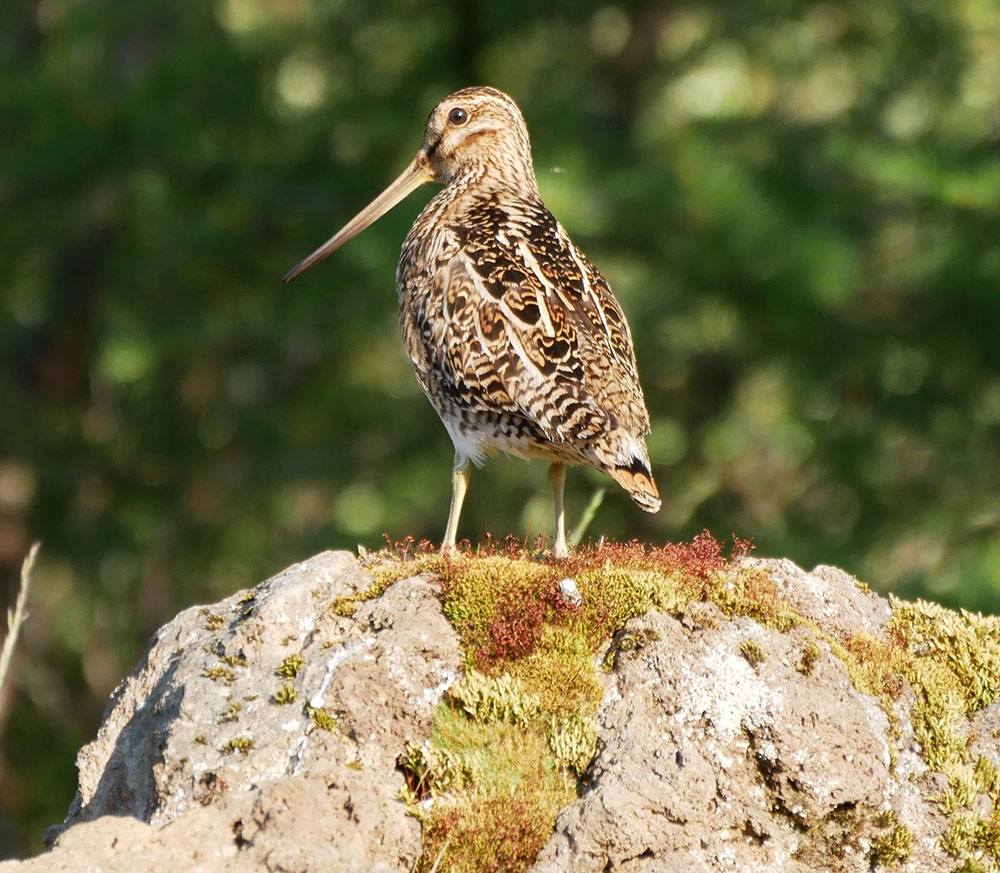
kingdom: Animalia
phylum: Chordata
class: Aves
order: Charadriiformes
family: Scolopacidae
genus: Gallinago
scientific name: Gallinago gallinago
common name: Common snipe
